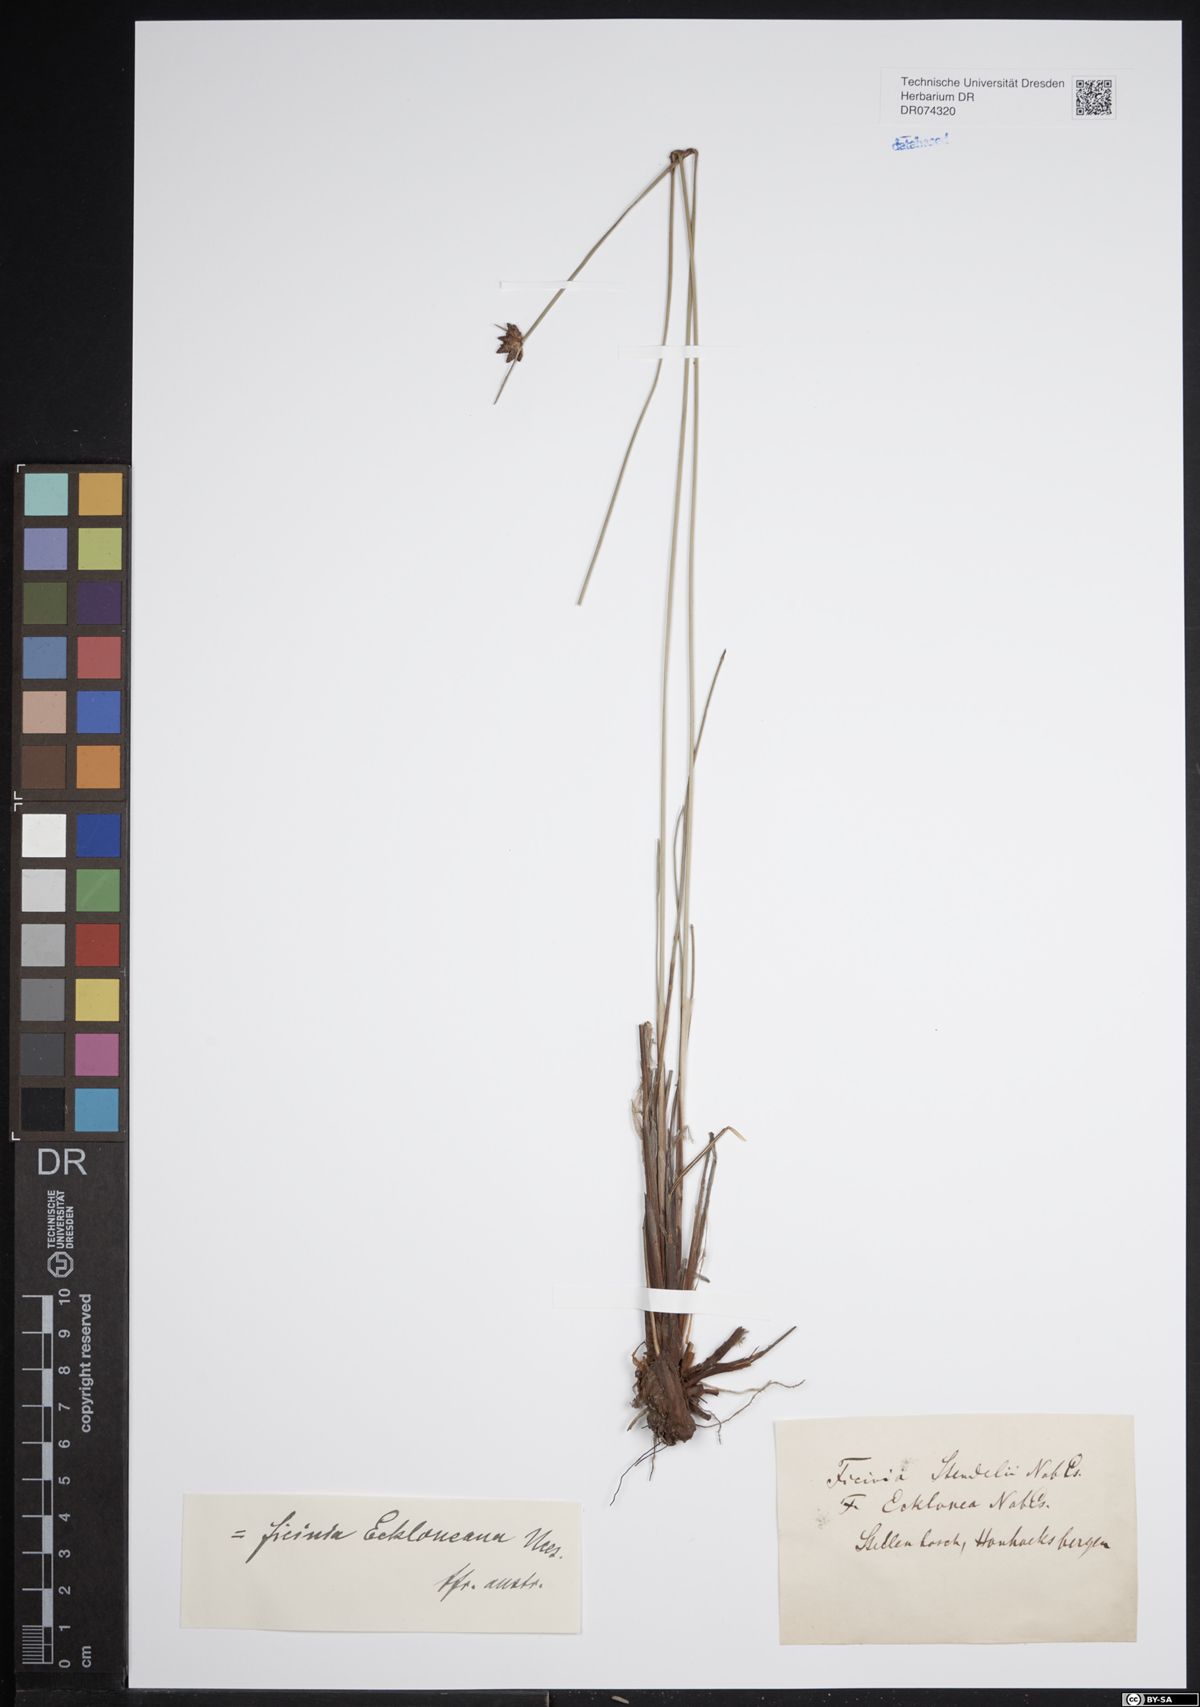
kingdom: Plantae
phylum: Tracheophyta
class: Liliopsida
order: Poales
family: Cyperaceae
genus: Ficinia
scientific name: Ficinia ecklonea
